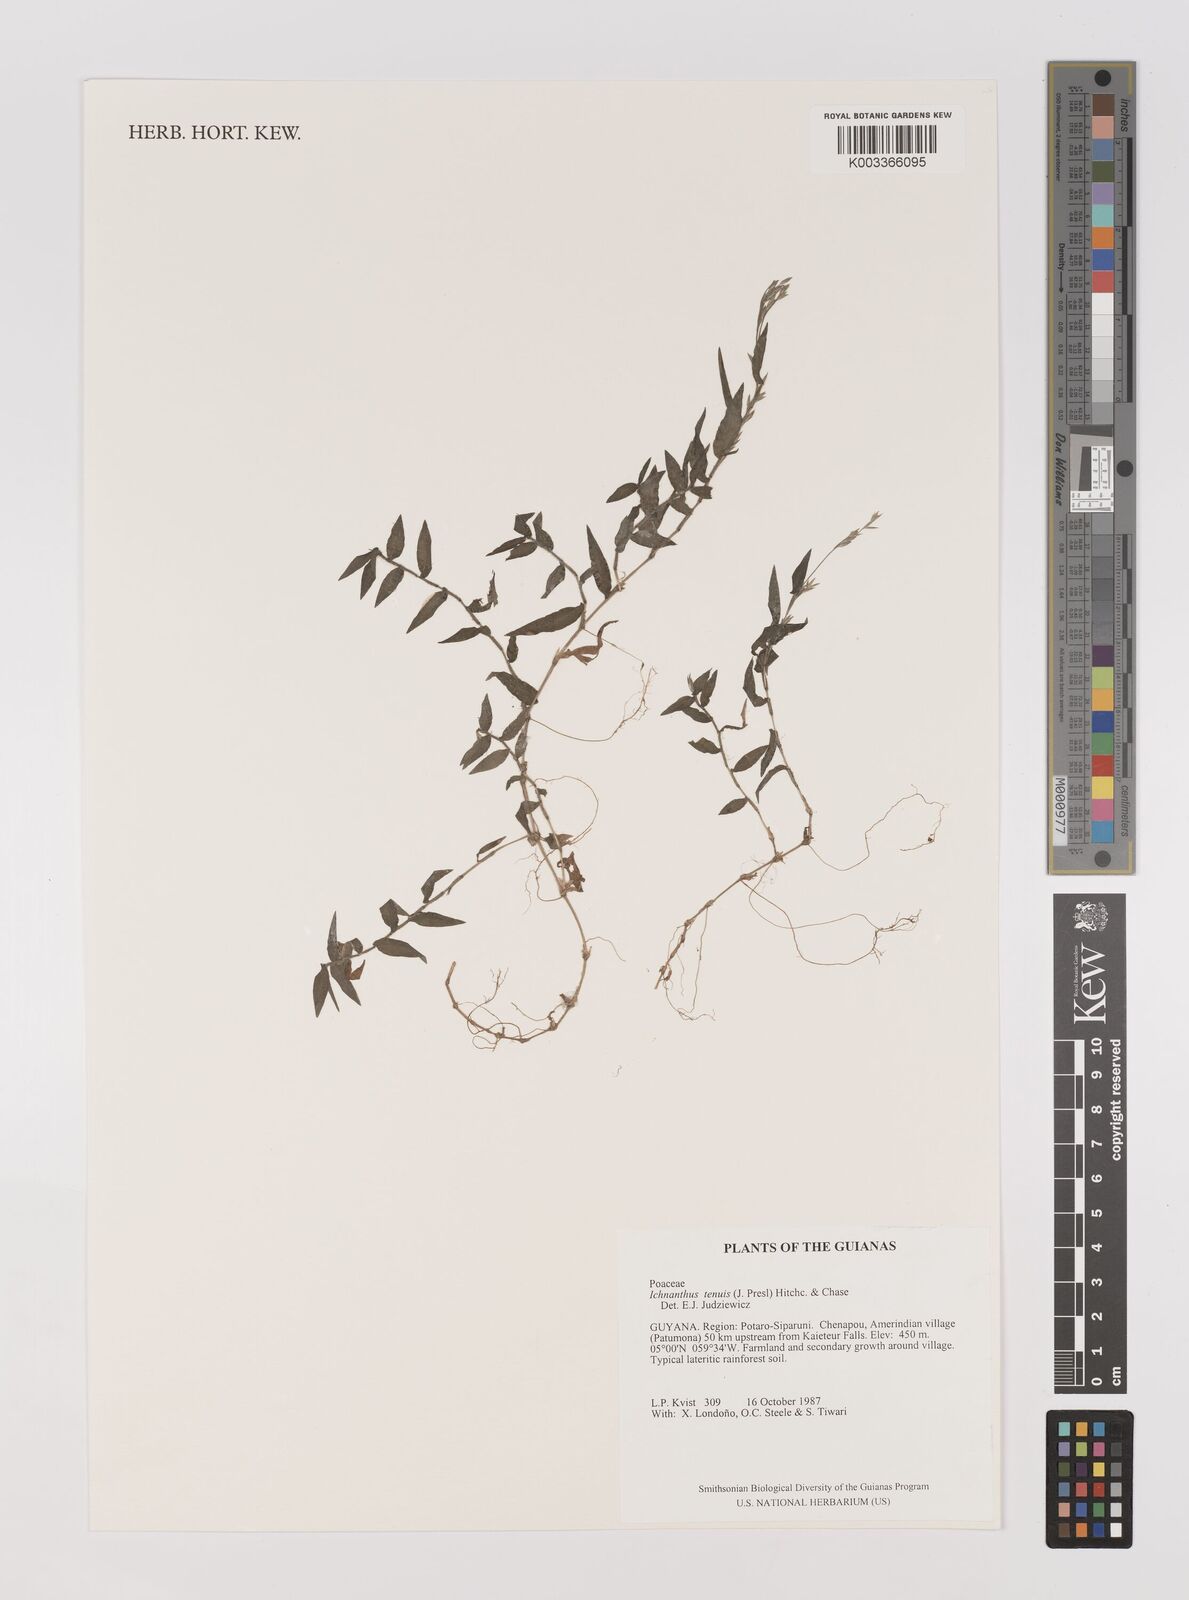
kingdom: Plantae
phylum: Tracheophyta
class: Liliopsida
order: Poales
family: Poaceae
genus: Ichnanthus
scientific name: Ichnanthus tenuis
